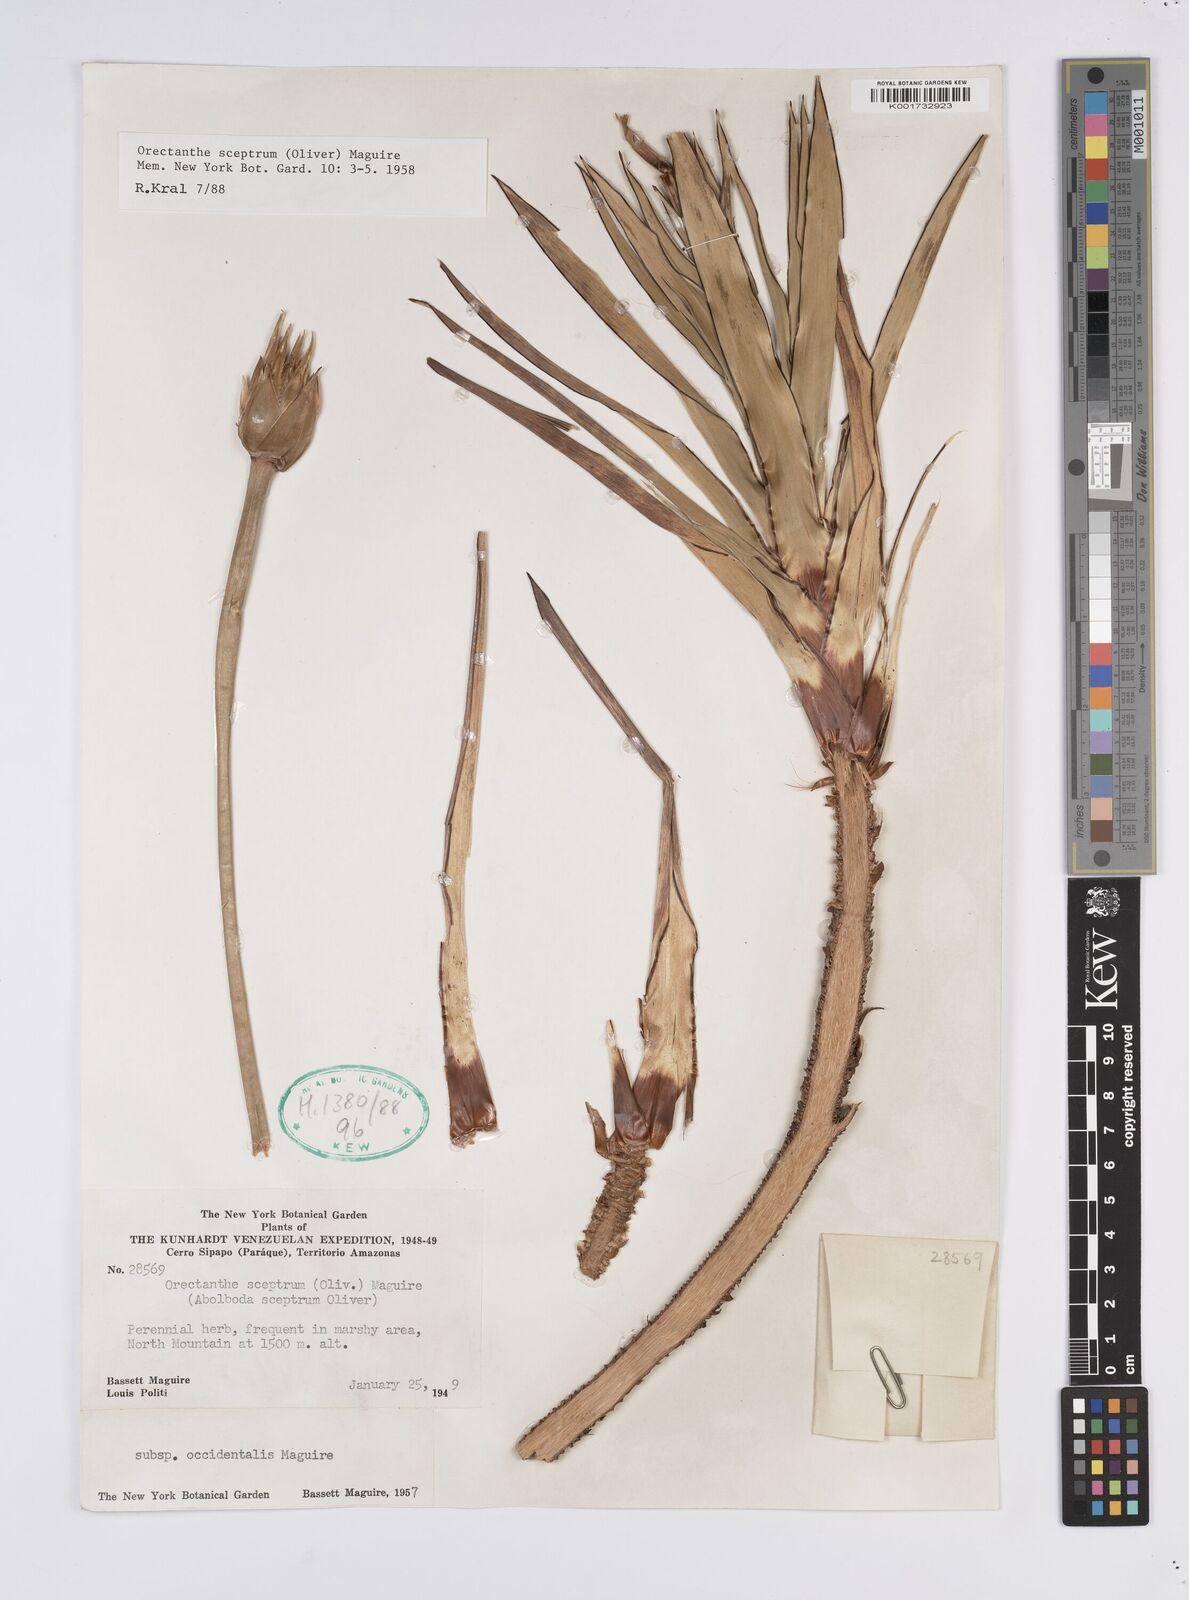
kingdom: Plantae
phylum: Tracheophyta
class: Liliopsida
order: Poales
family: Xyridaceae
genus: Orectanthe
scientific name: Orectanthe sceptrum
